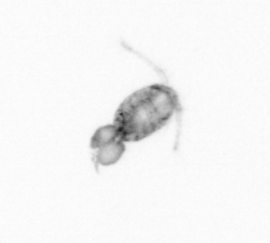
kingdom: Animalia
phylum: Arthropoda
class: Copepoda
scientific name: Copepoda
